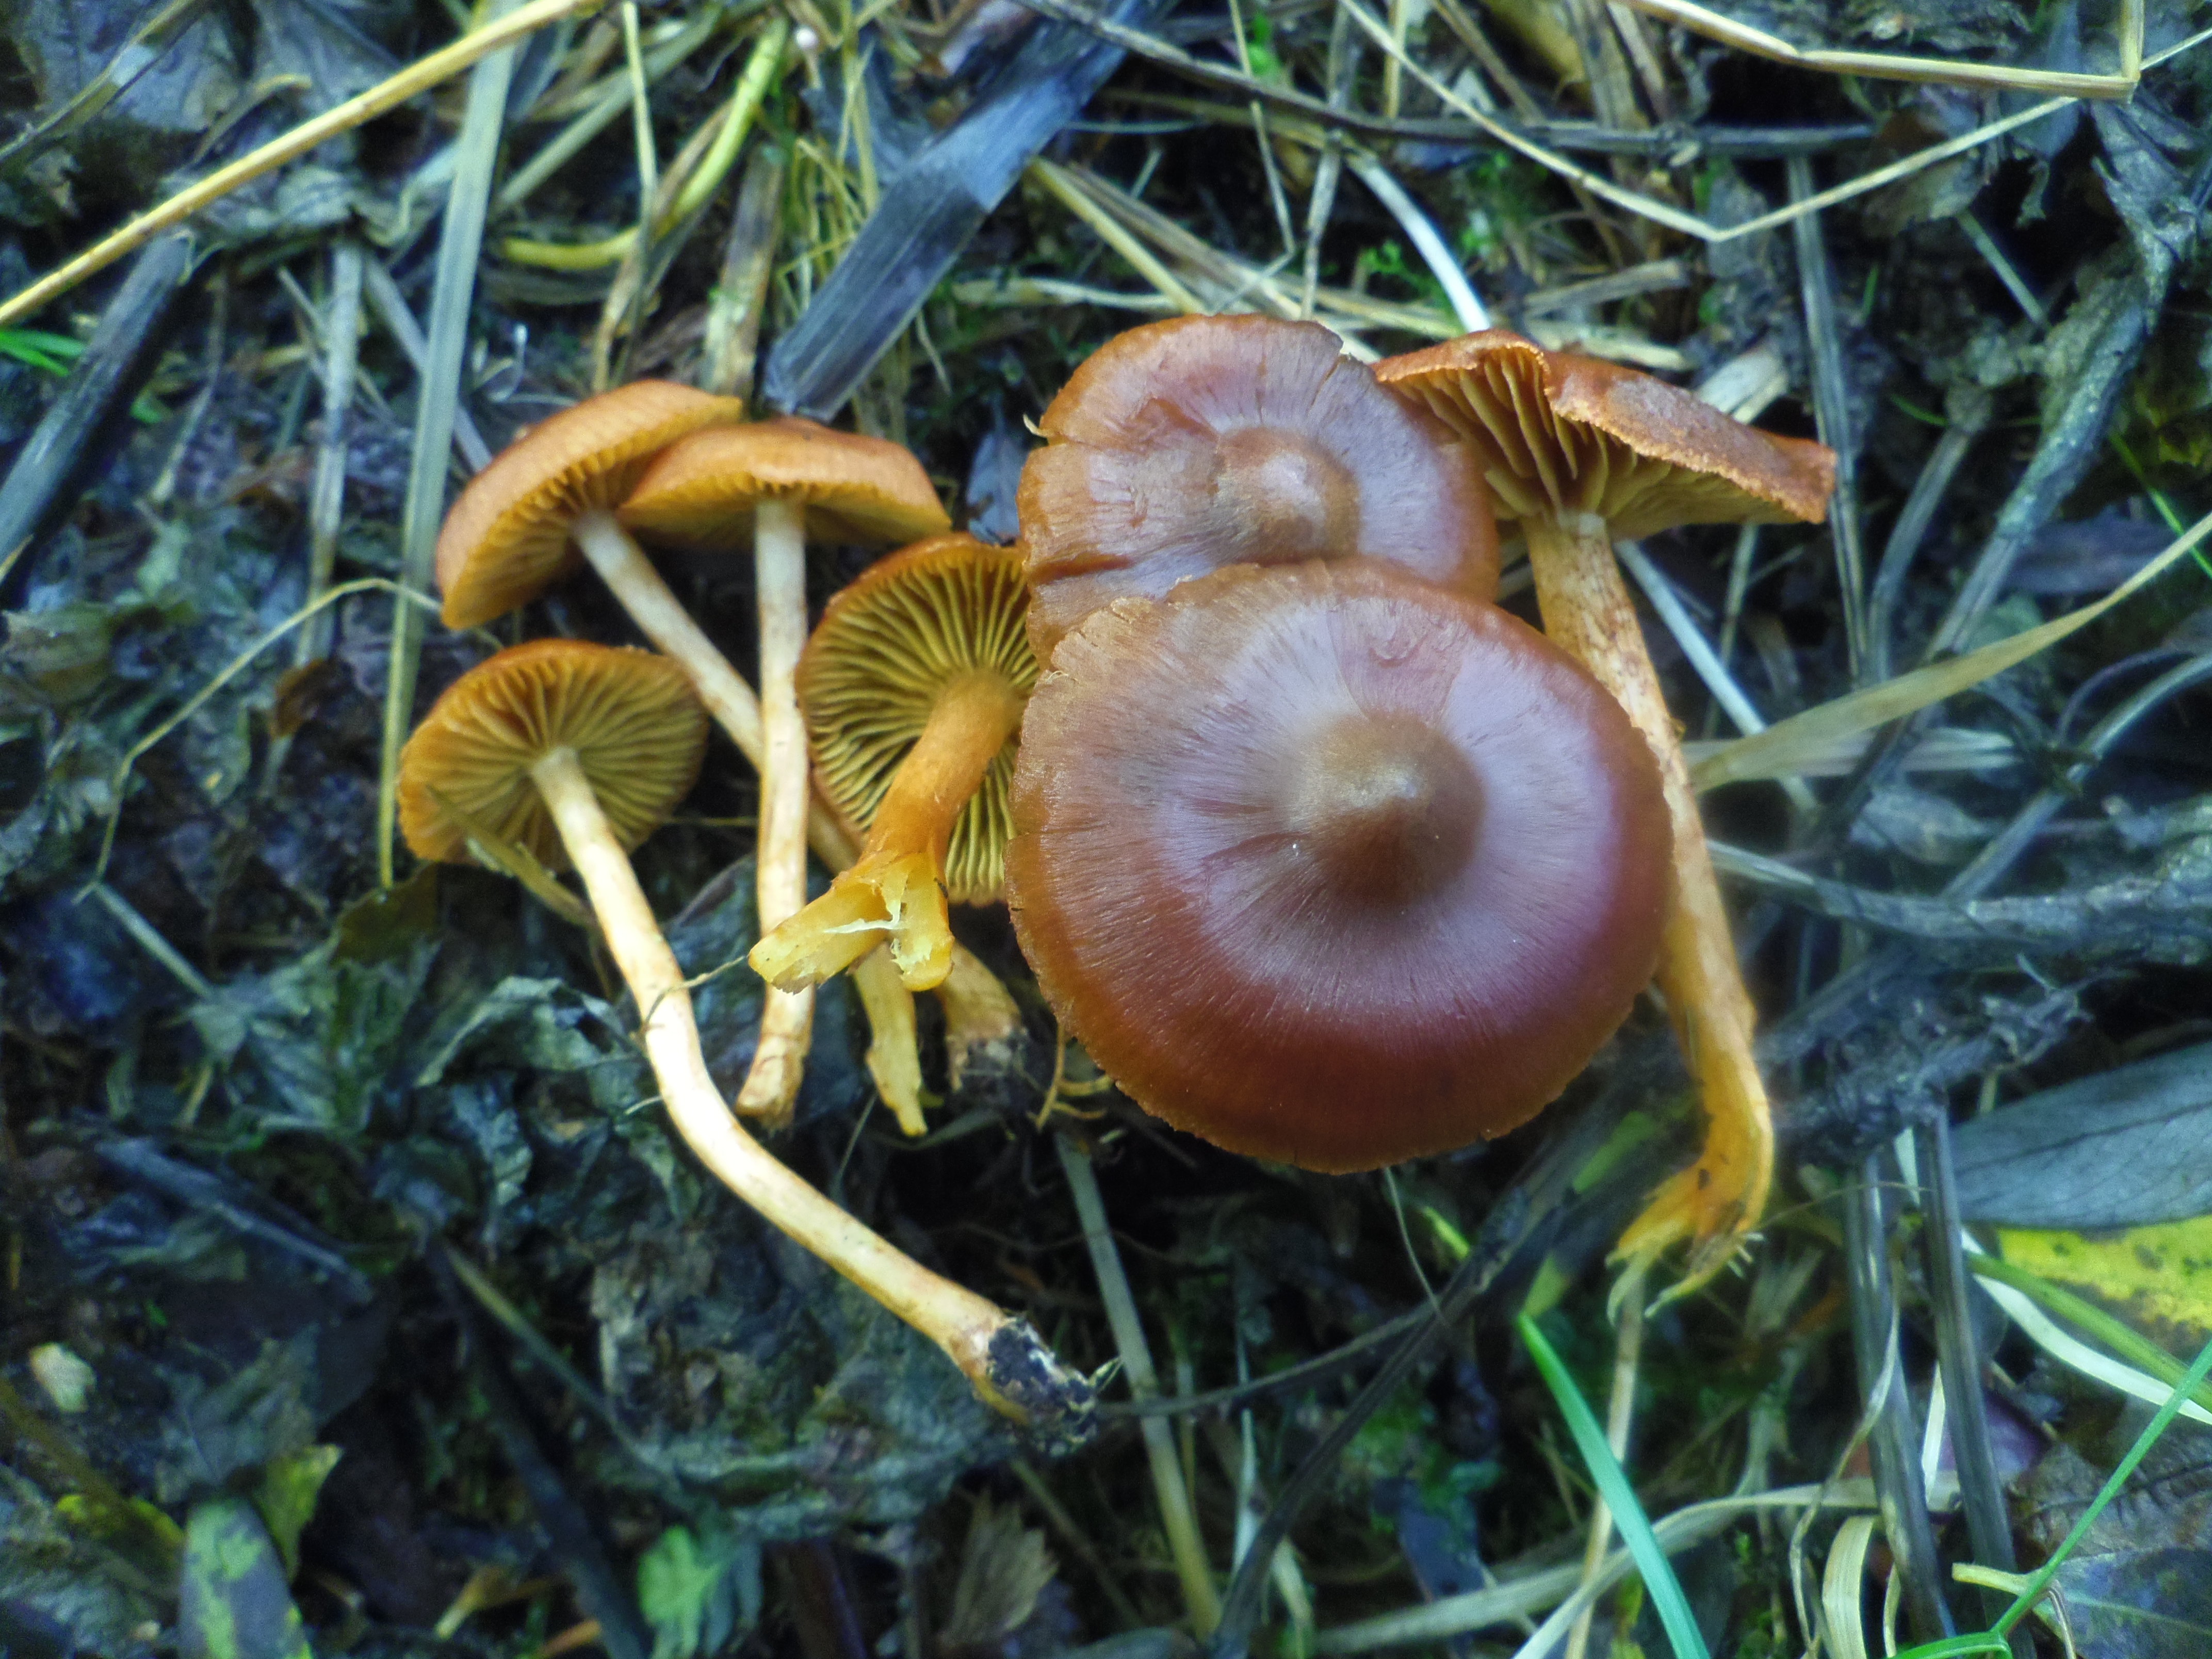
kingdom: Fungi
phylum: Basidiomycota
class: Agaricomycetes
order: Agaricales
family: Cortinariaceae
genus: Cortinarius
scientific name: Cortinarius uliginosus
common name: Marsh webcap
